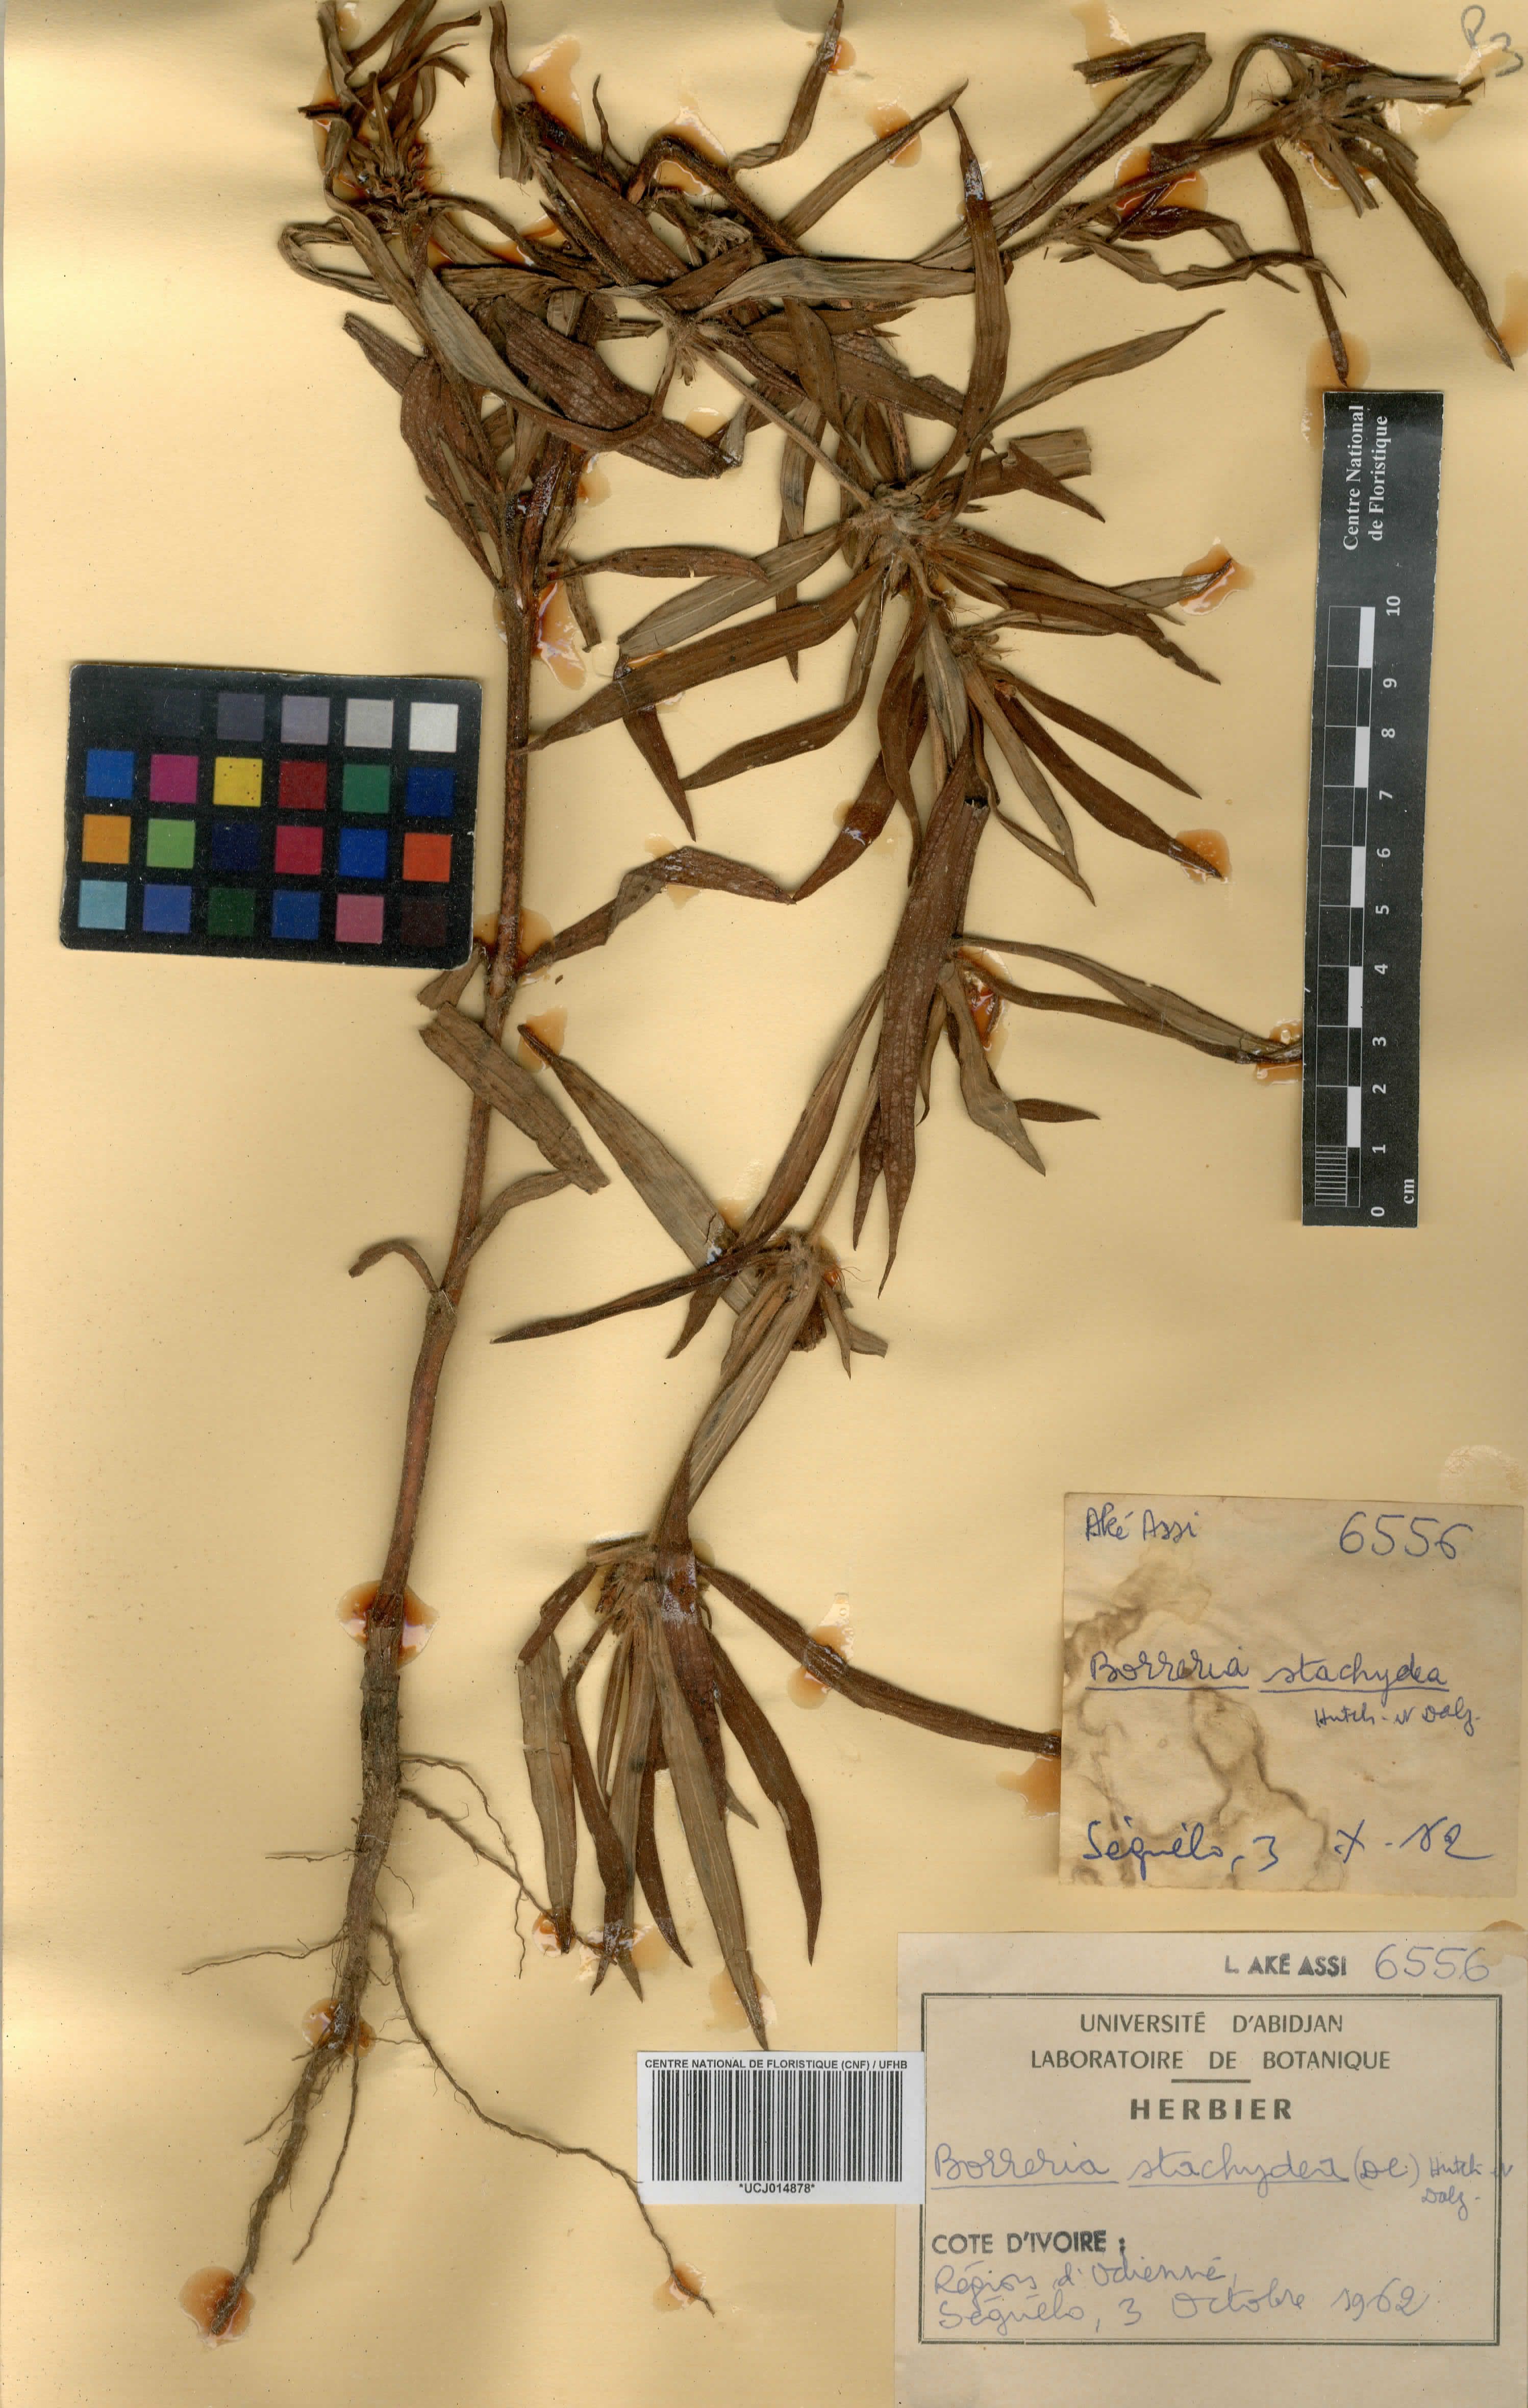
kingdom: Plantae
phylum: Tracheophyta
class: Magnoliopsida
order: Gentianales
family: Rubiaceae
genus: Spermacoce
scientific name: Spermacoce stachydea
